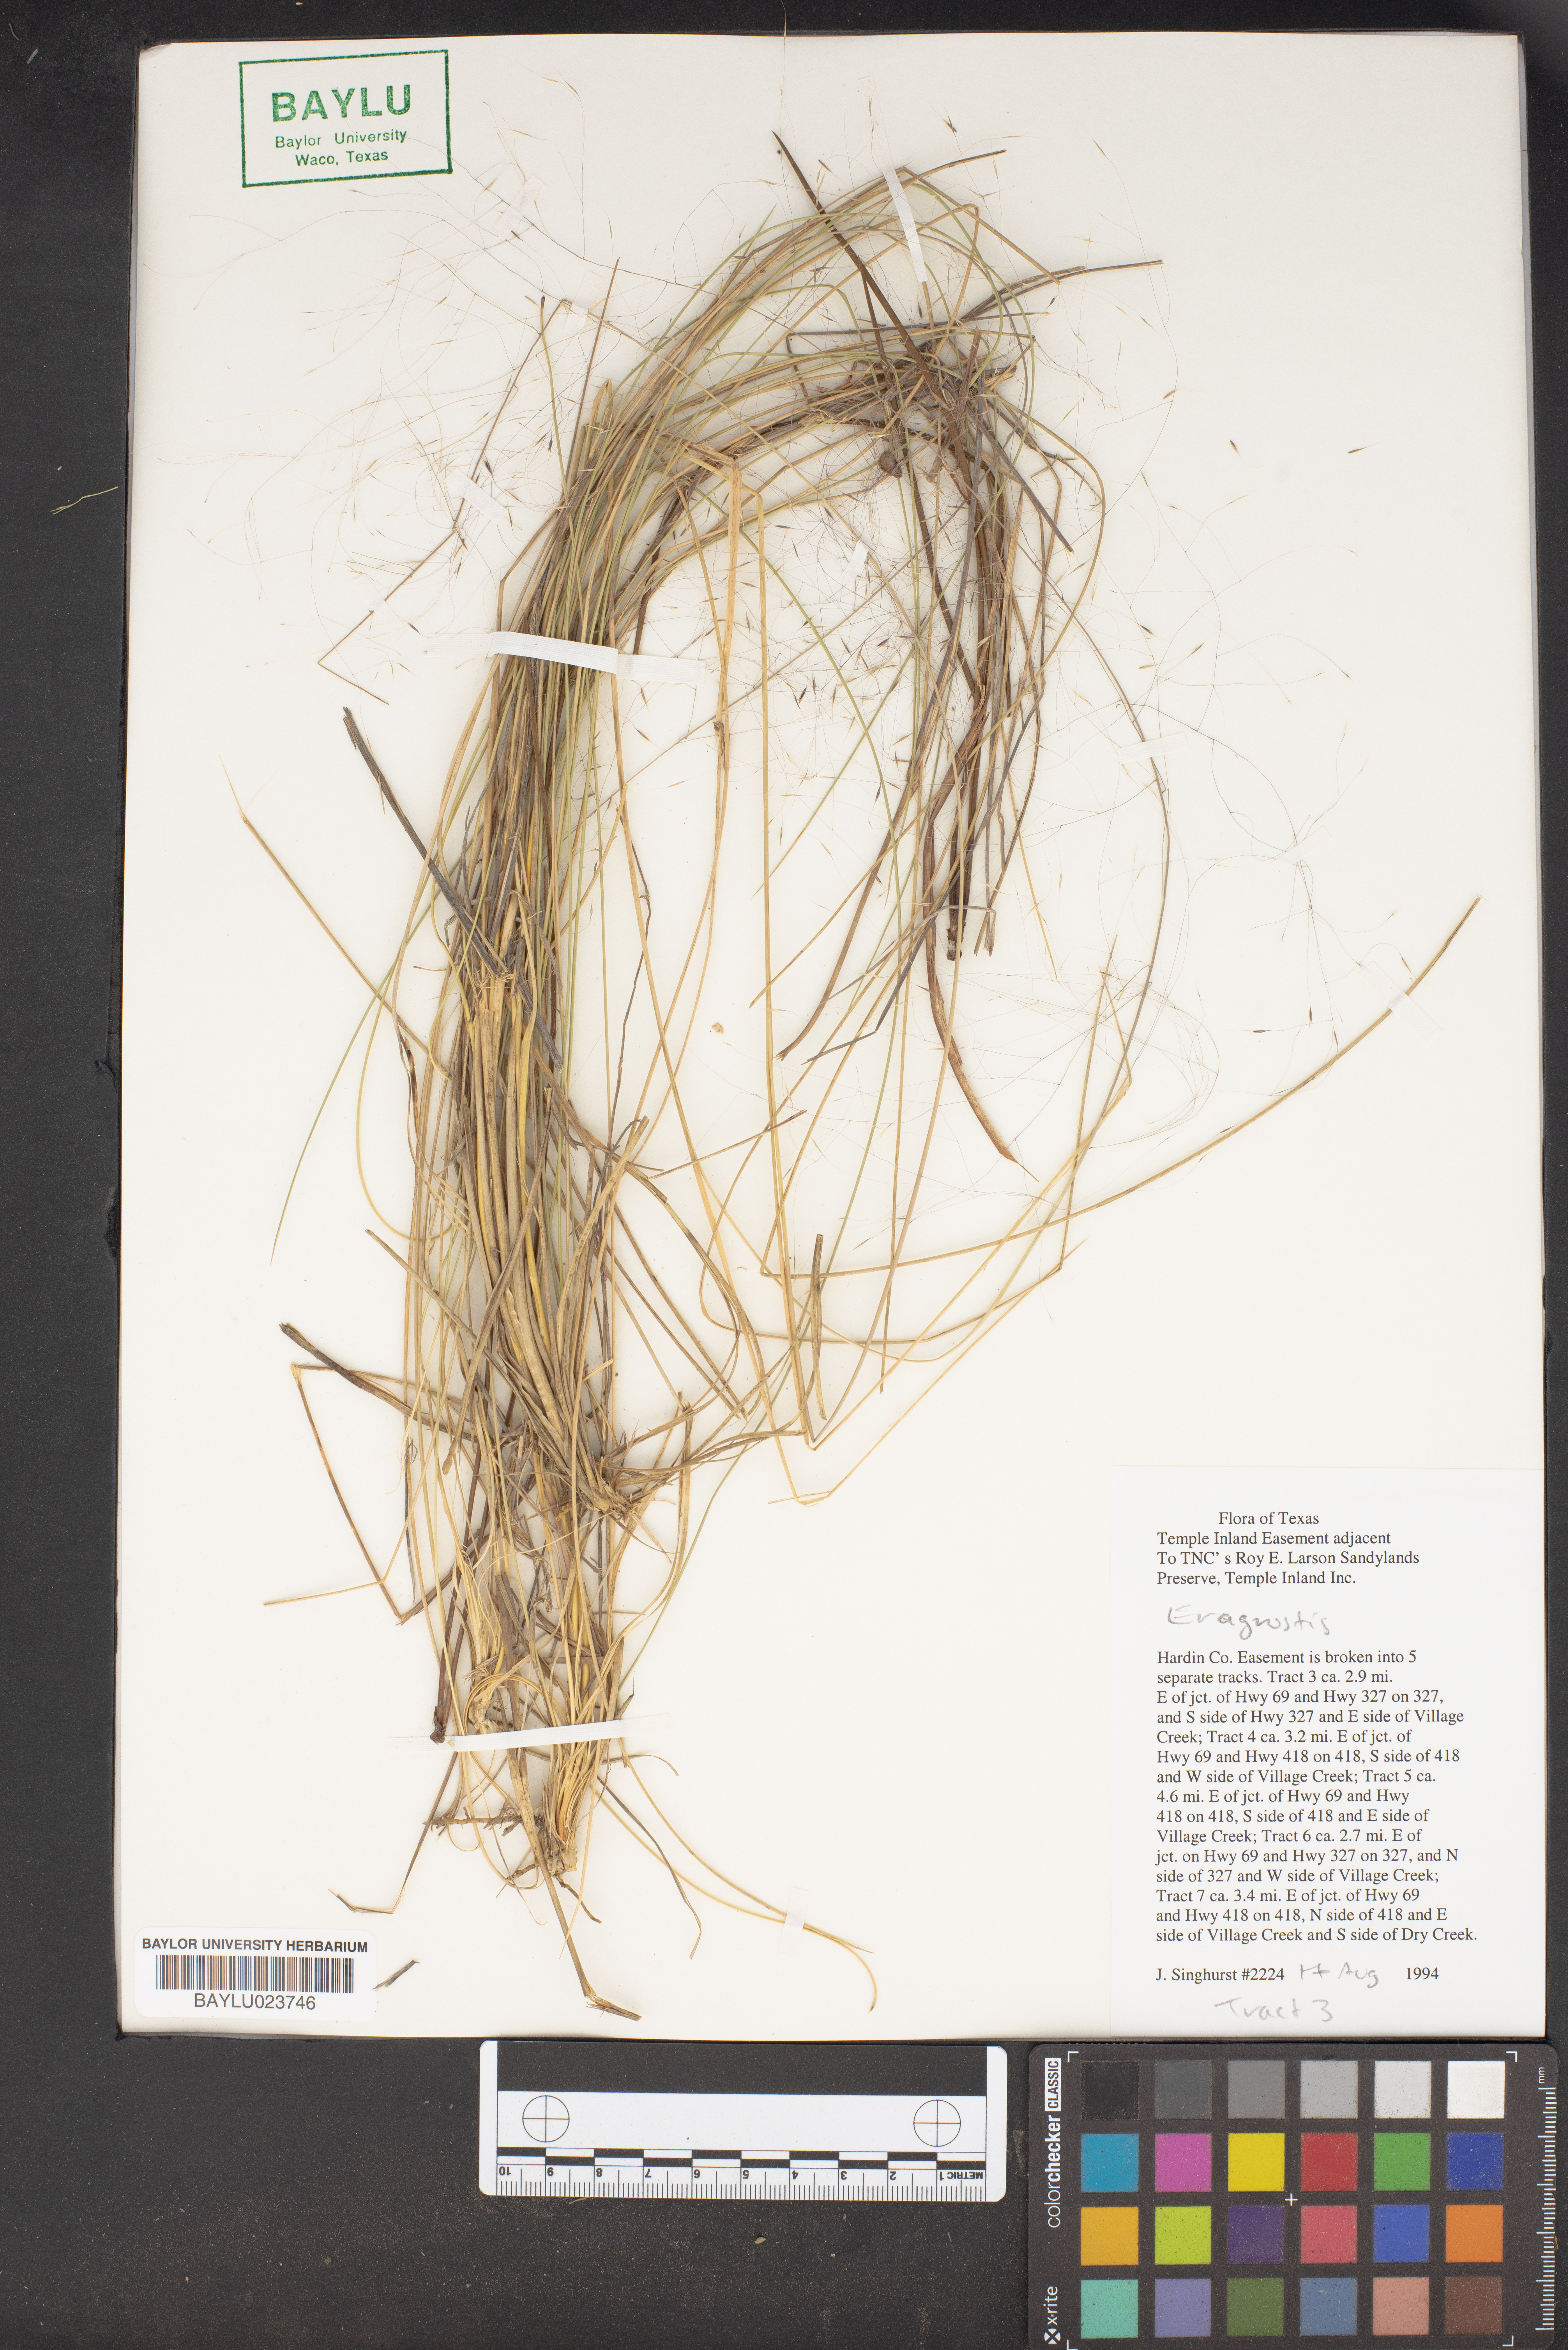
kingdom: Plantae
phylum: Tracheophyta
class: Liliopsida
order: Poales
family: Poaceae
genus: Eragrostis
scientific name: Eragrostis
